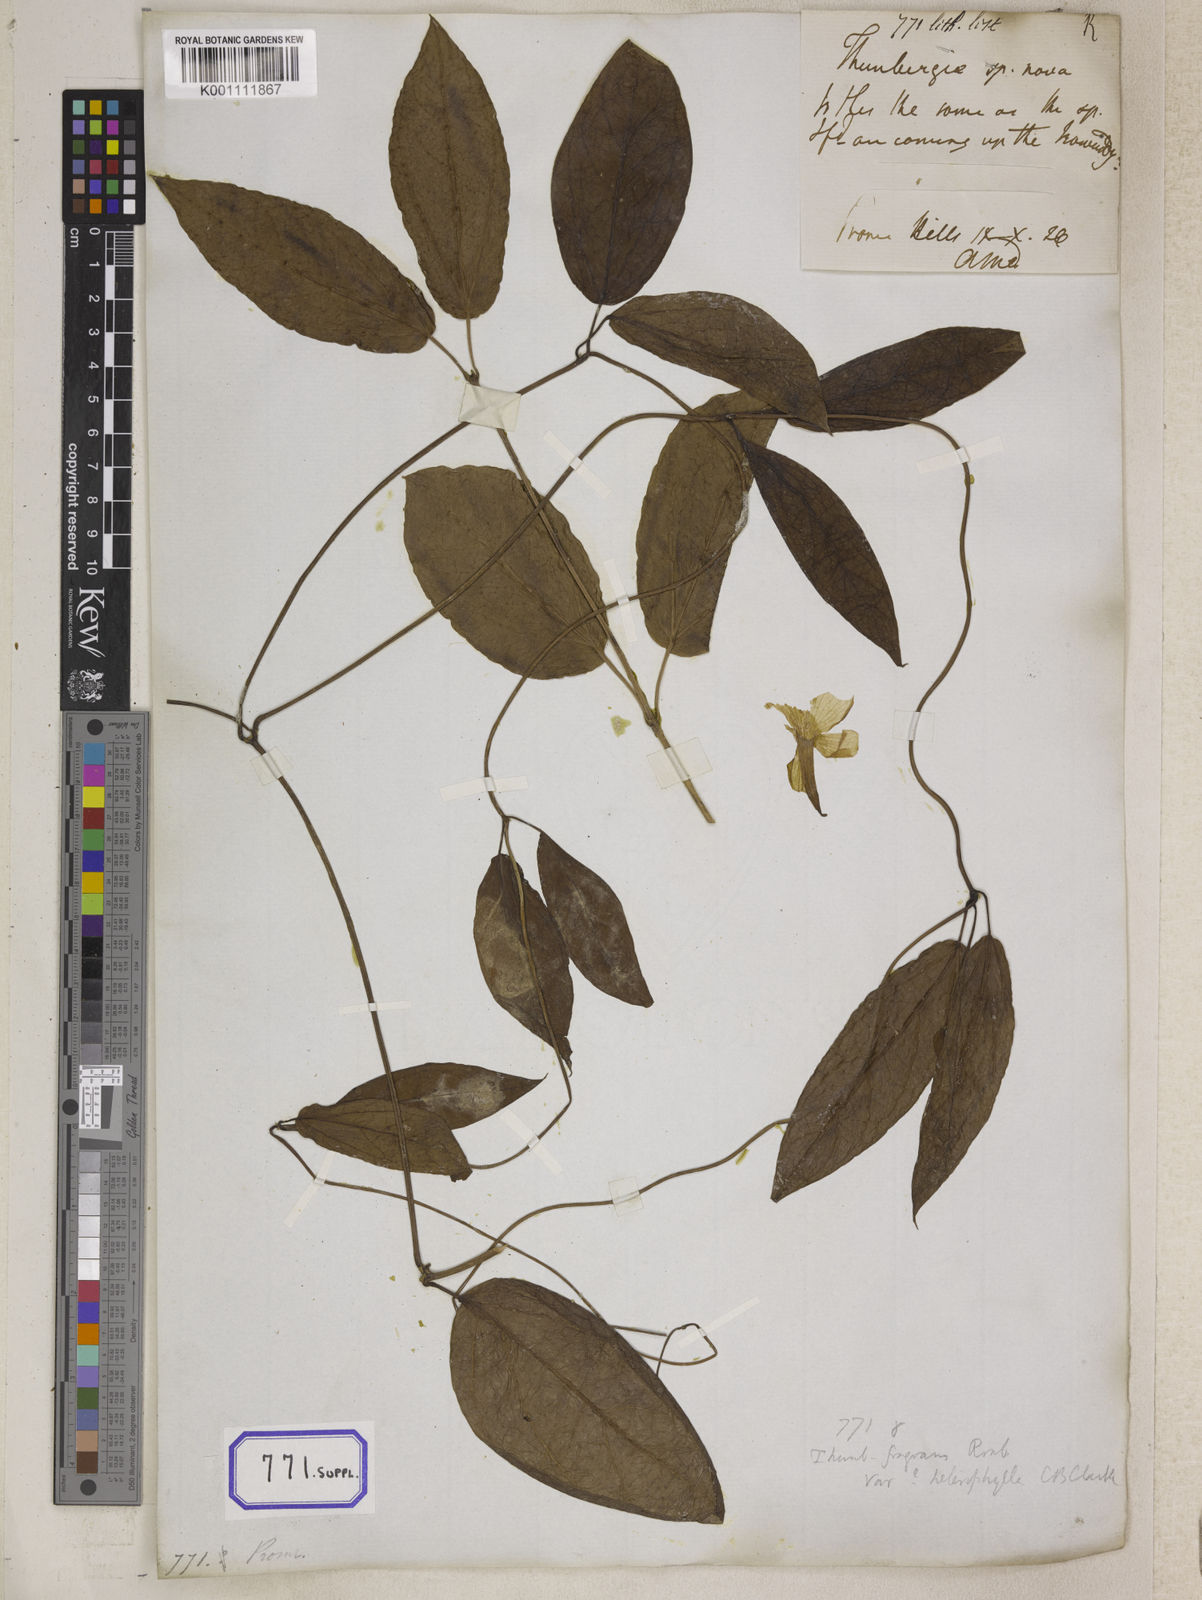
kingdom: Plantae
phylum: Tracheophyta
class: Magnoliopsida
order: Lamiales
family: Acanthaceae
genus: Thunbergia
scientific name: Thunbergia fragrans
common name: Whitelady
